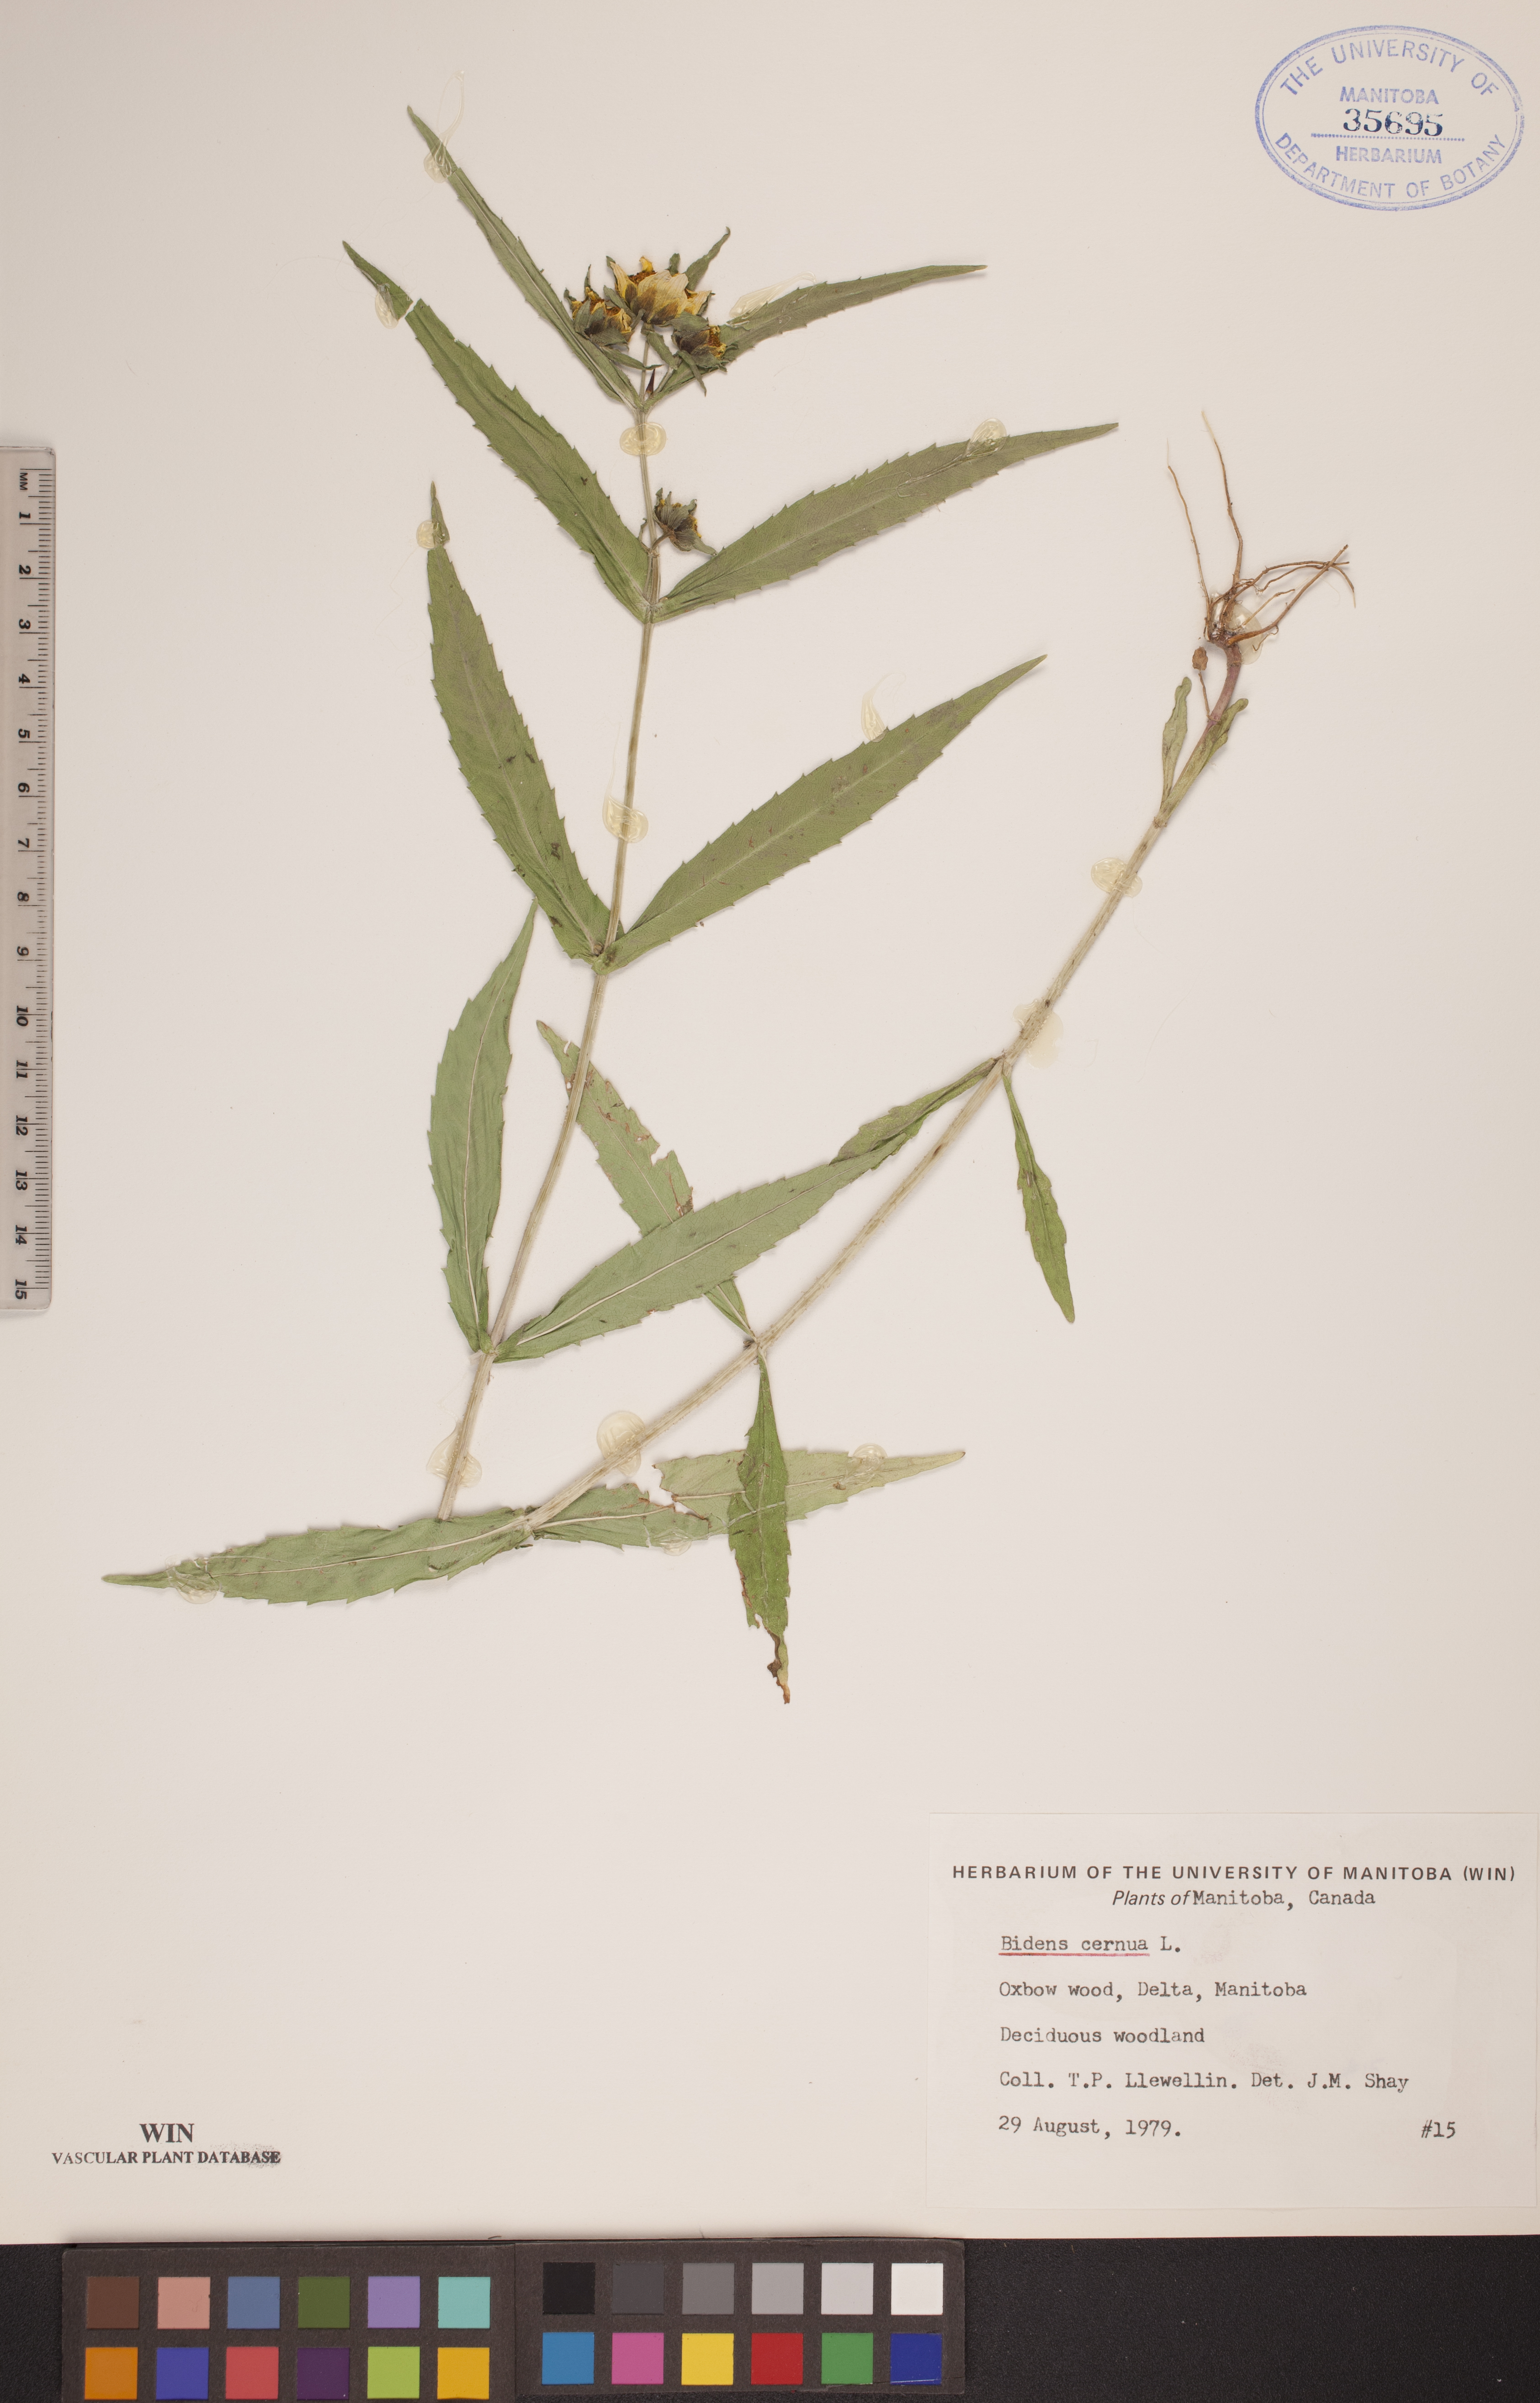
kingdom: Plantae
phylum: Tracheophyta
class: Magnoliopsida
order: Asterales
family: Asteraceae
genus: Bidens
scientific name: Bidens cernua
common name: Nodding bur-marigold
